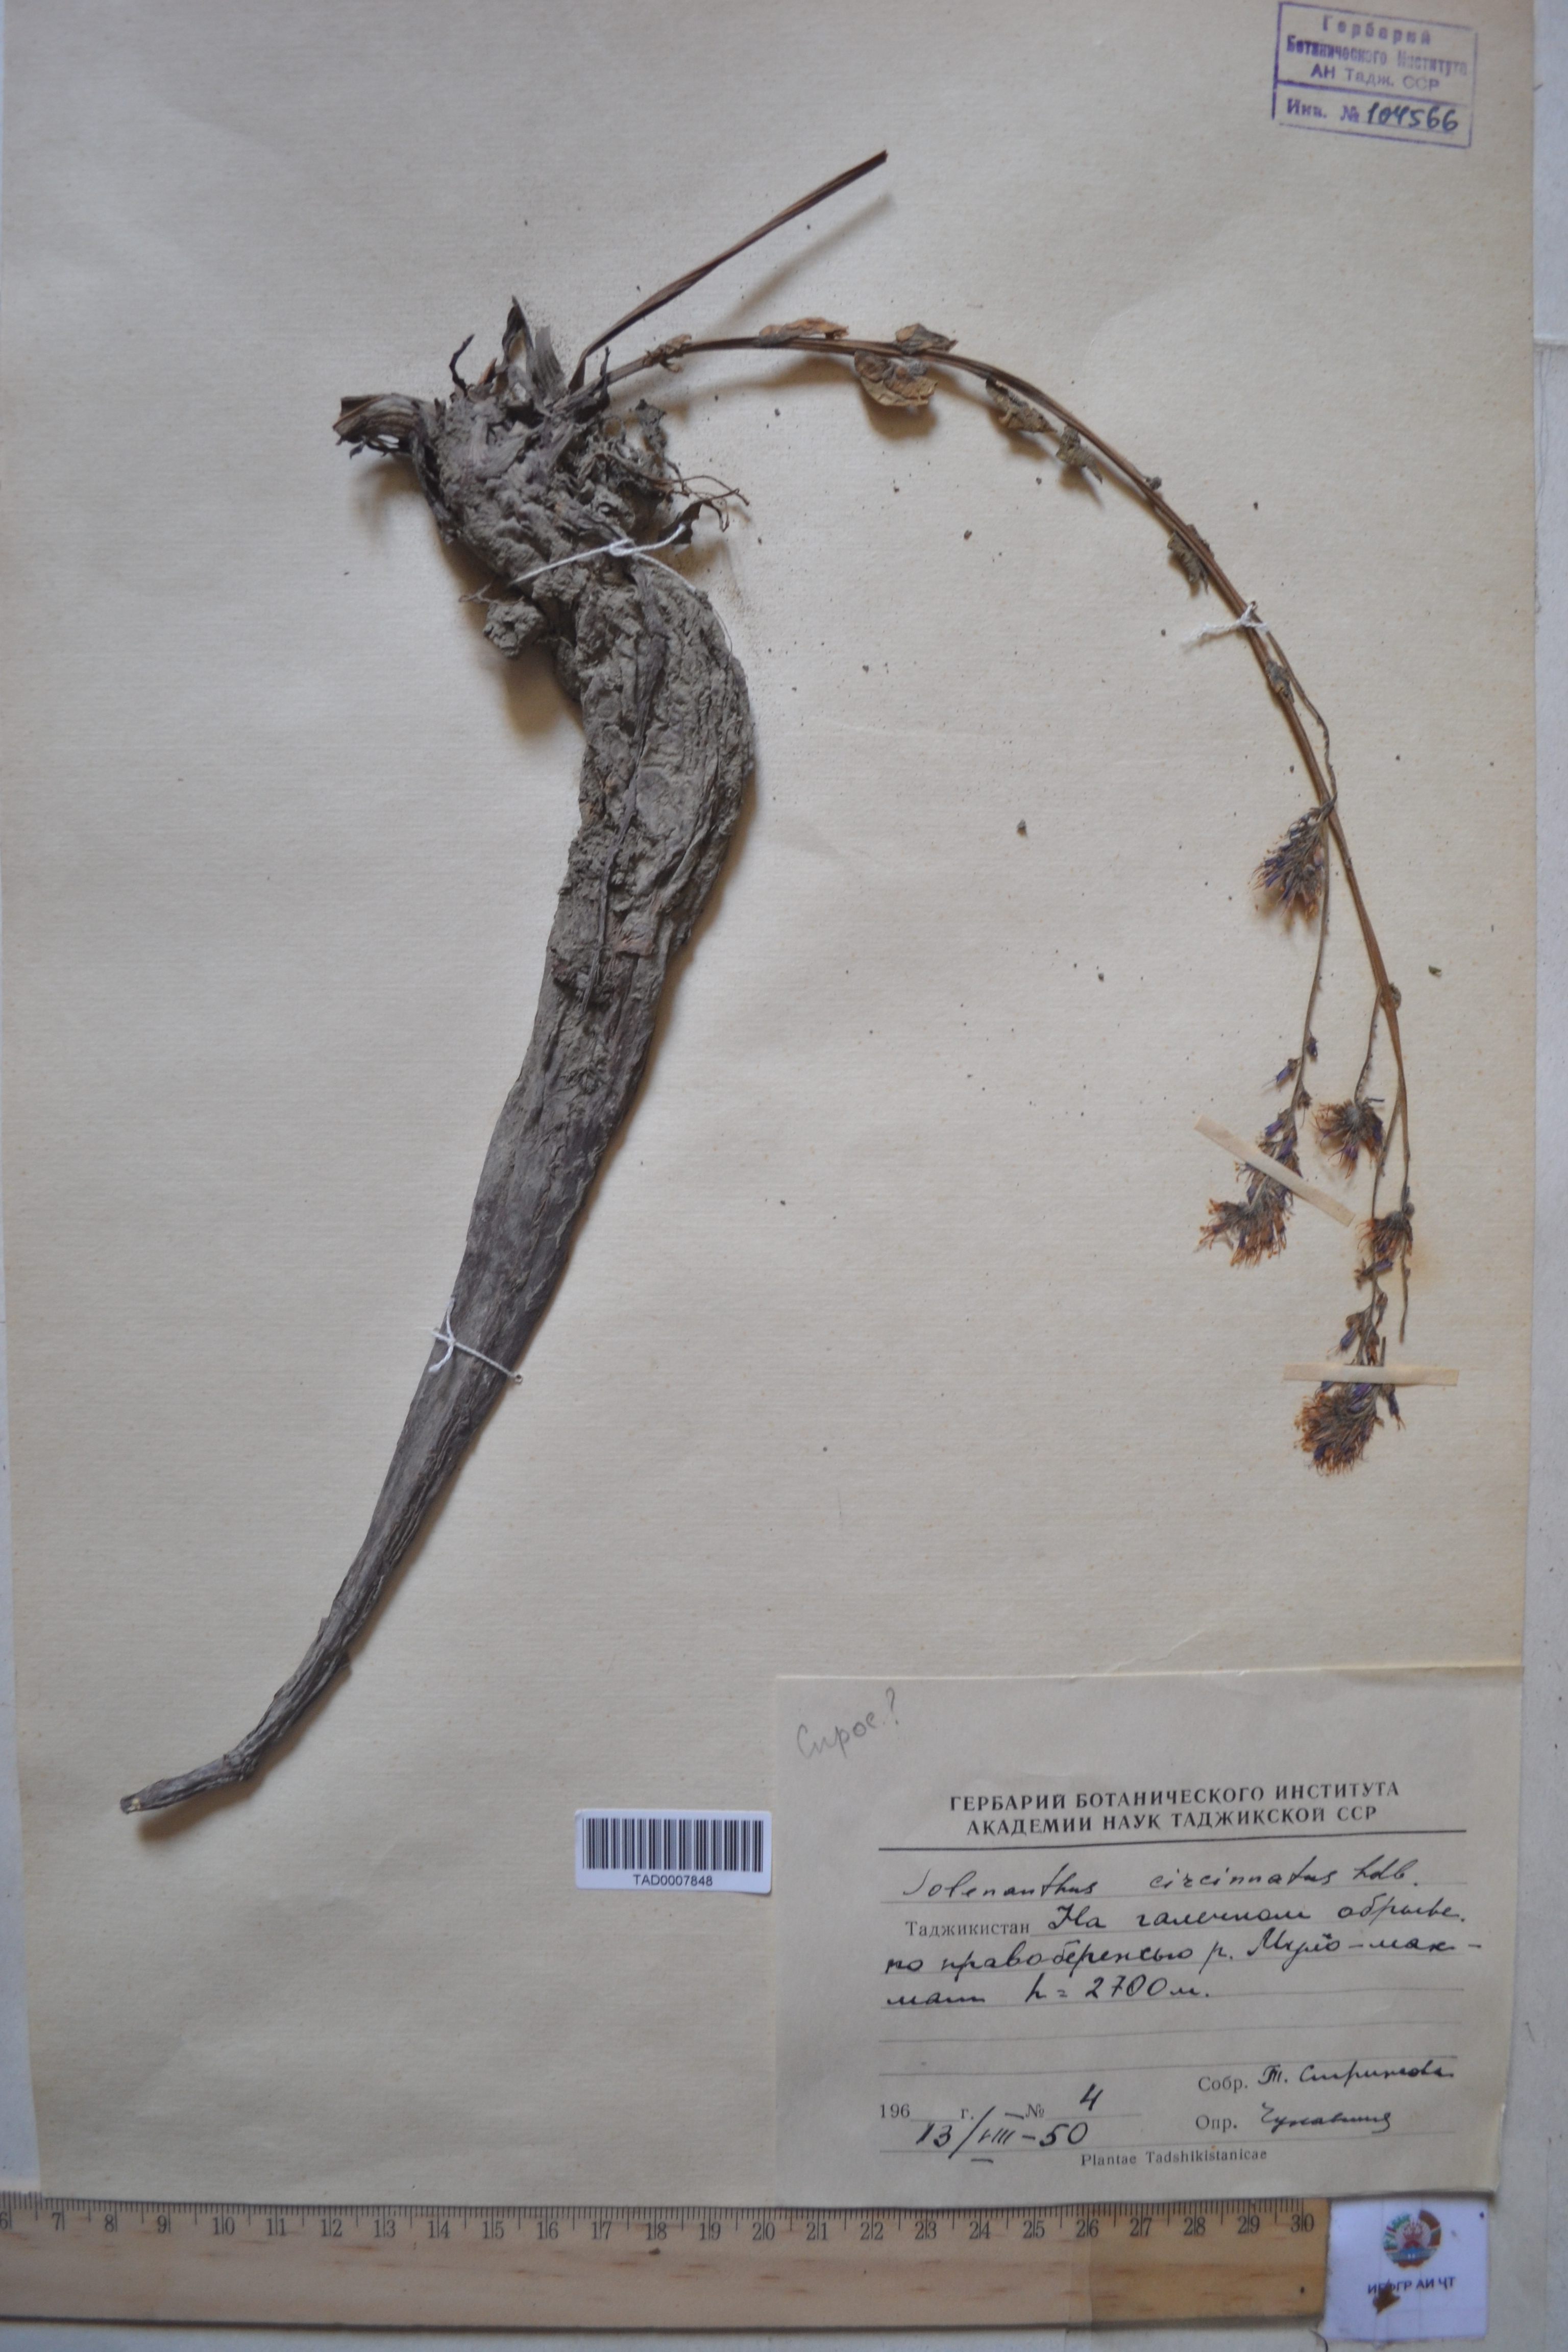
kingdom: Plantae
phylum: Tracheophyta
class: Magnoliopsida
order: Boraginales
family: Boraginaceae
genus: Solenanthus
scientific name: Solenanthus circinnatus
